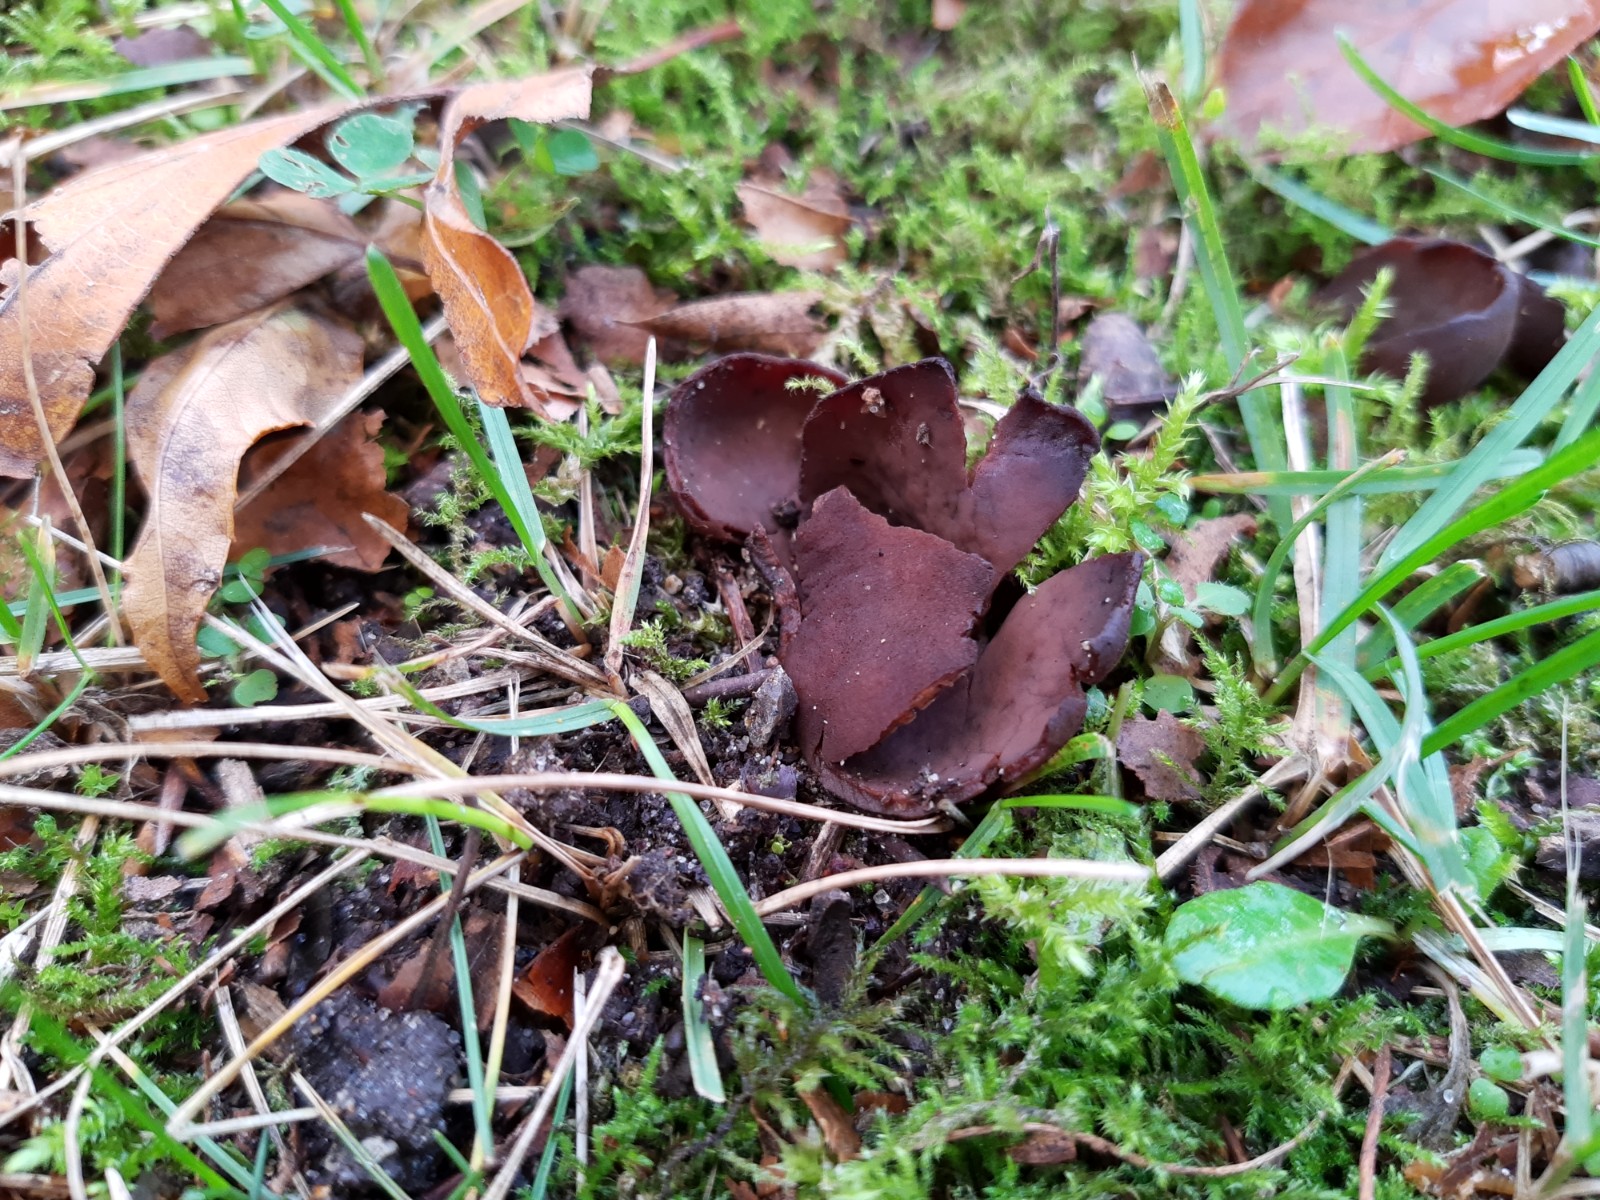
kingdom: Fungi
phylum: Ascomycota
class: Pezizomycetes
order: Pezizales
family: Otideaceae
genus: Otidea
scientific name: Otidea bufonia
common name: brun ørebæger
